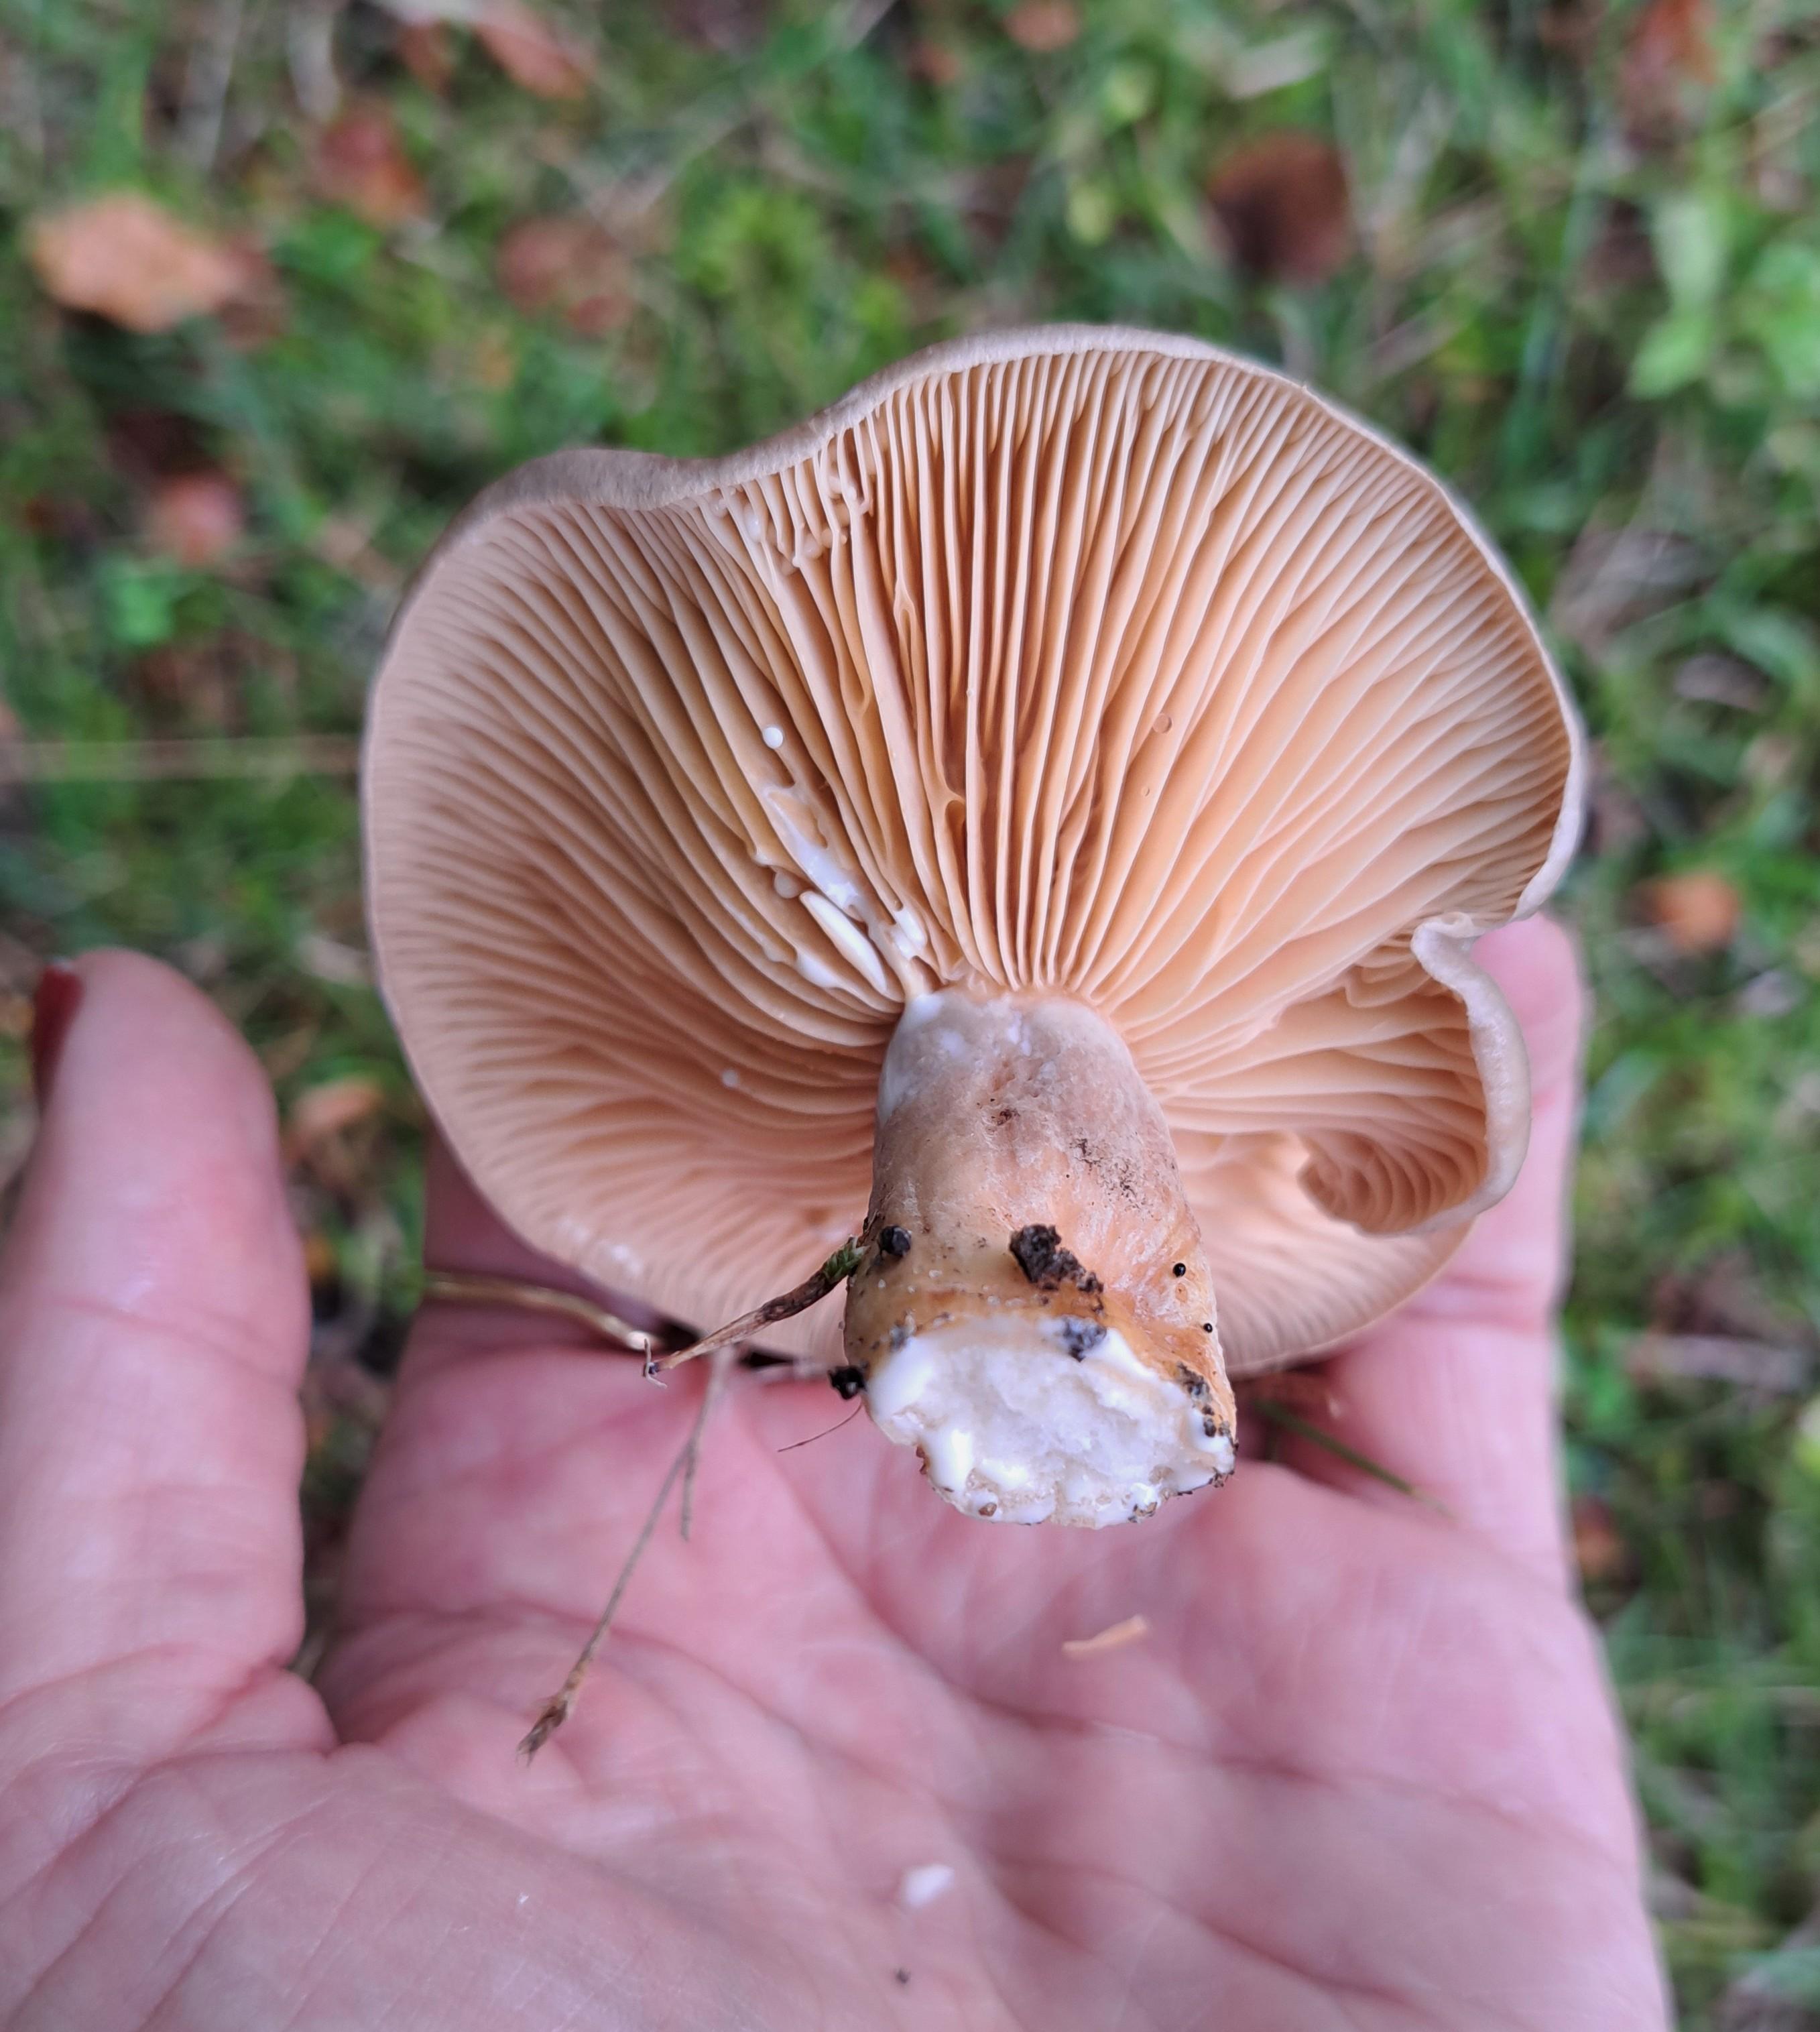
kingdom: Fungi
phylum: Basidiomycota
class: Agaricomycetes
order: Russulales
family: Russulaceae
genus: Lactarius
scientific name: Lactarius pyrogalus
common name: hassel-mælkehat
